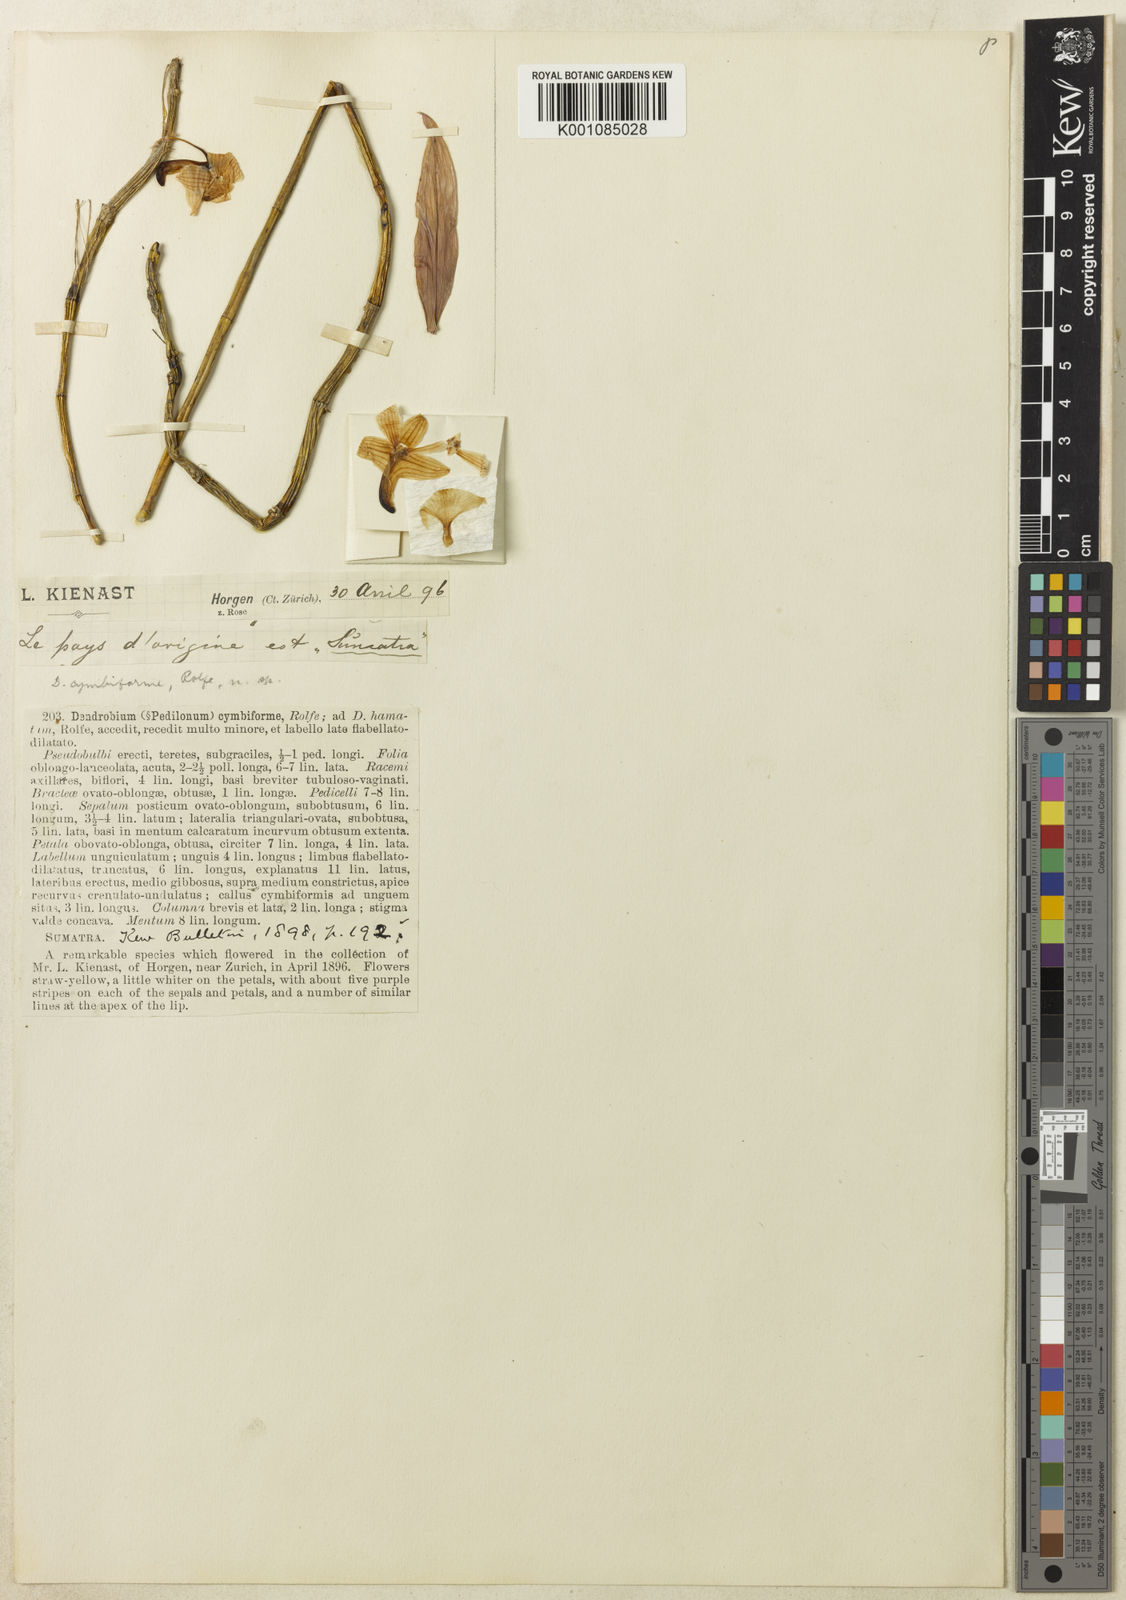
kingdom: Plantae
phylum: Tracheophyta
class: Liliopsida
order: Asparagales
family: Orchidaceae
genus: Dendrobium
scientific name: Dendrobium
